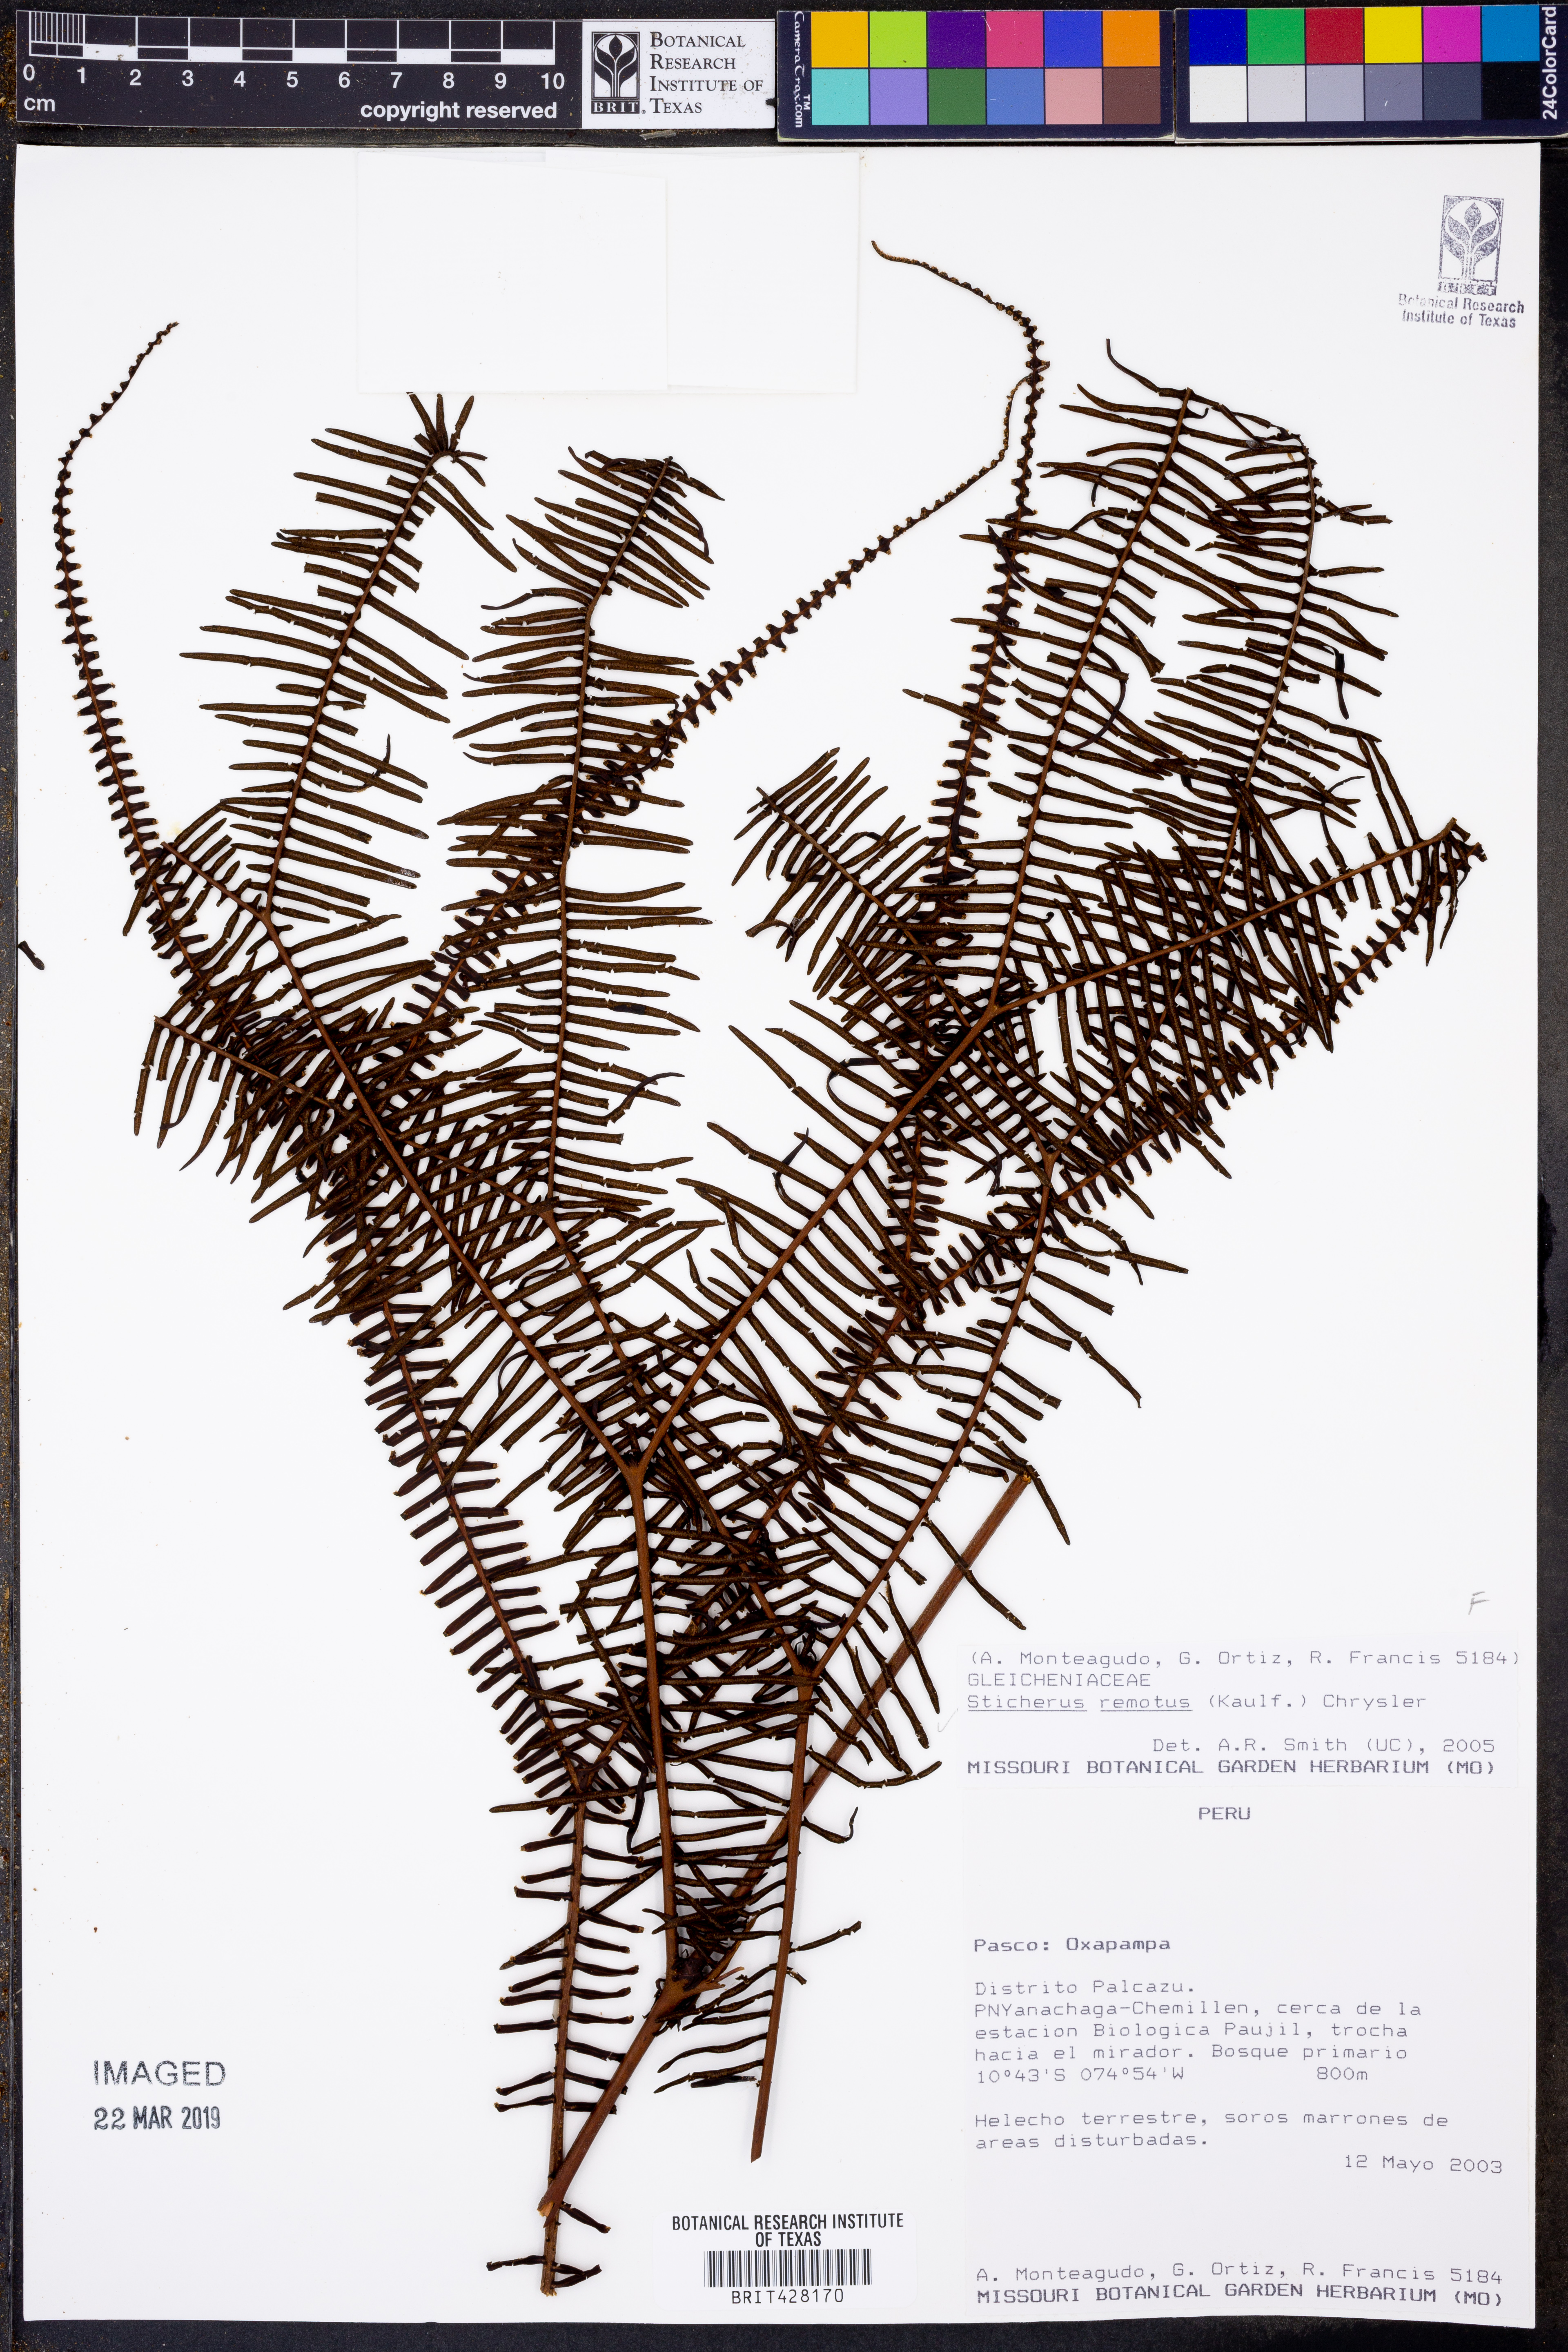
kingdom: Plantae
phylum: Tracheophyta
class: Polypodiopsida
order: Gleicheniales
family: Gleicheniaceae
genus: Sticherus
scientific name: Sticherus remotus
